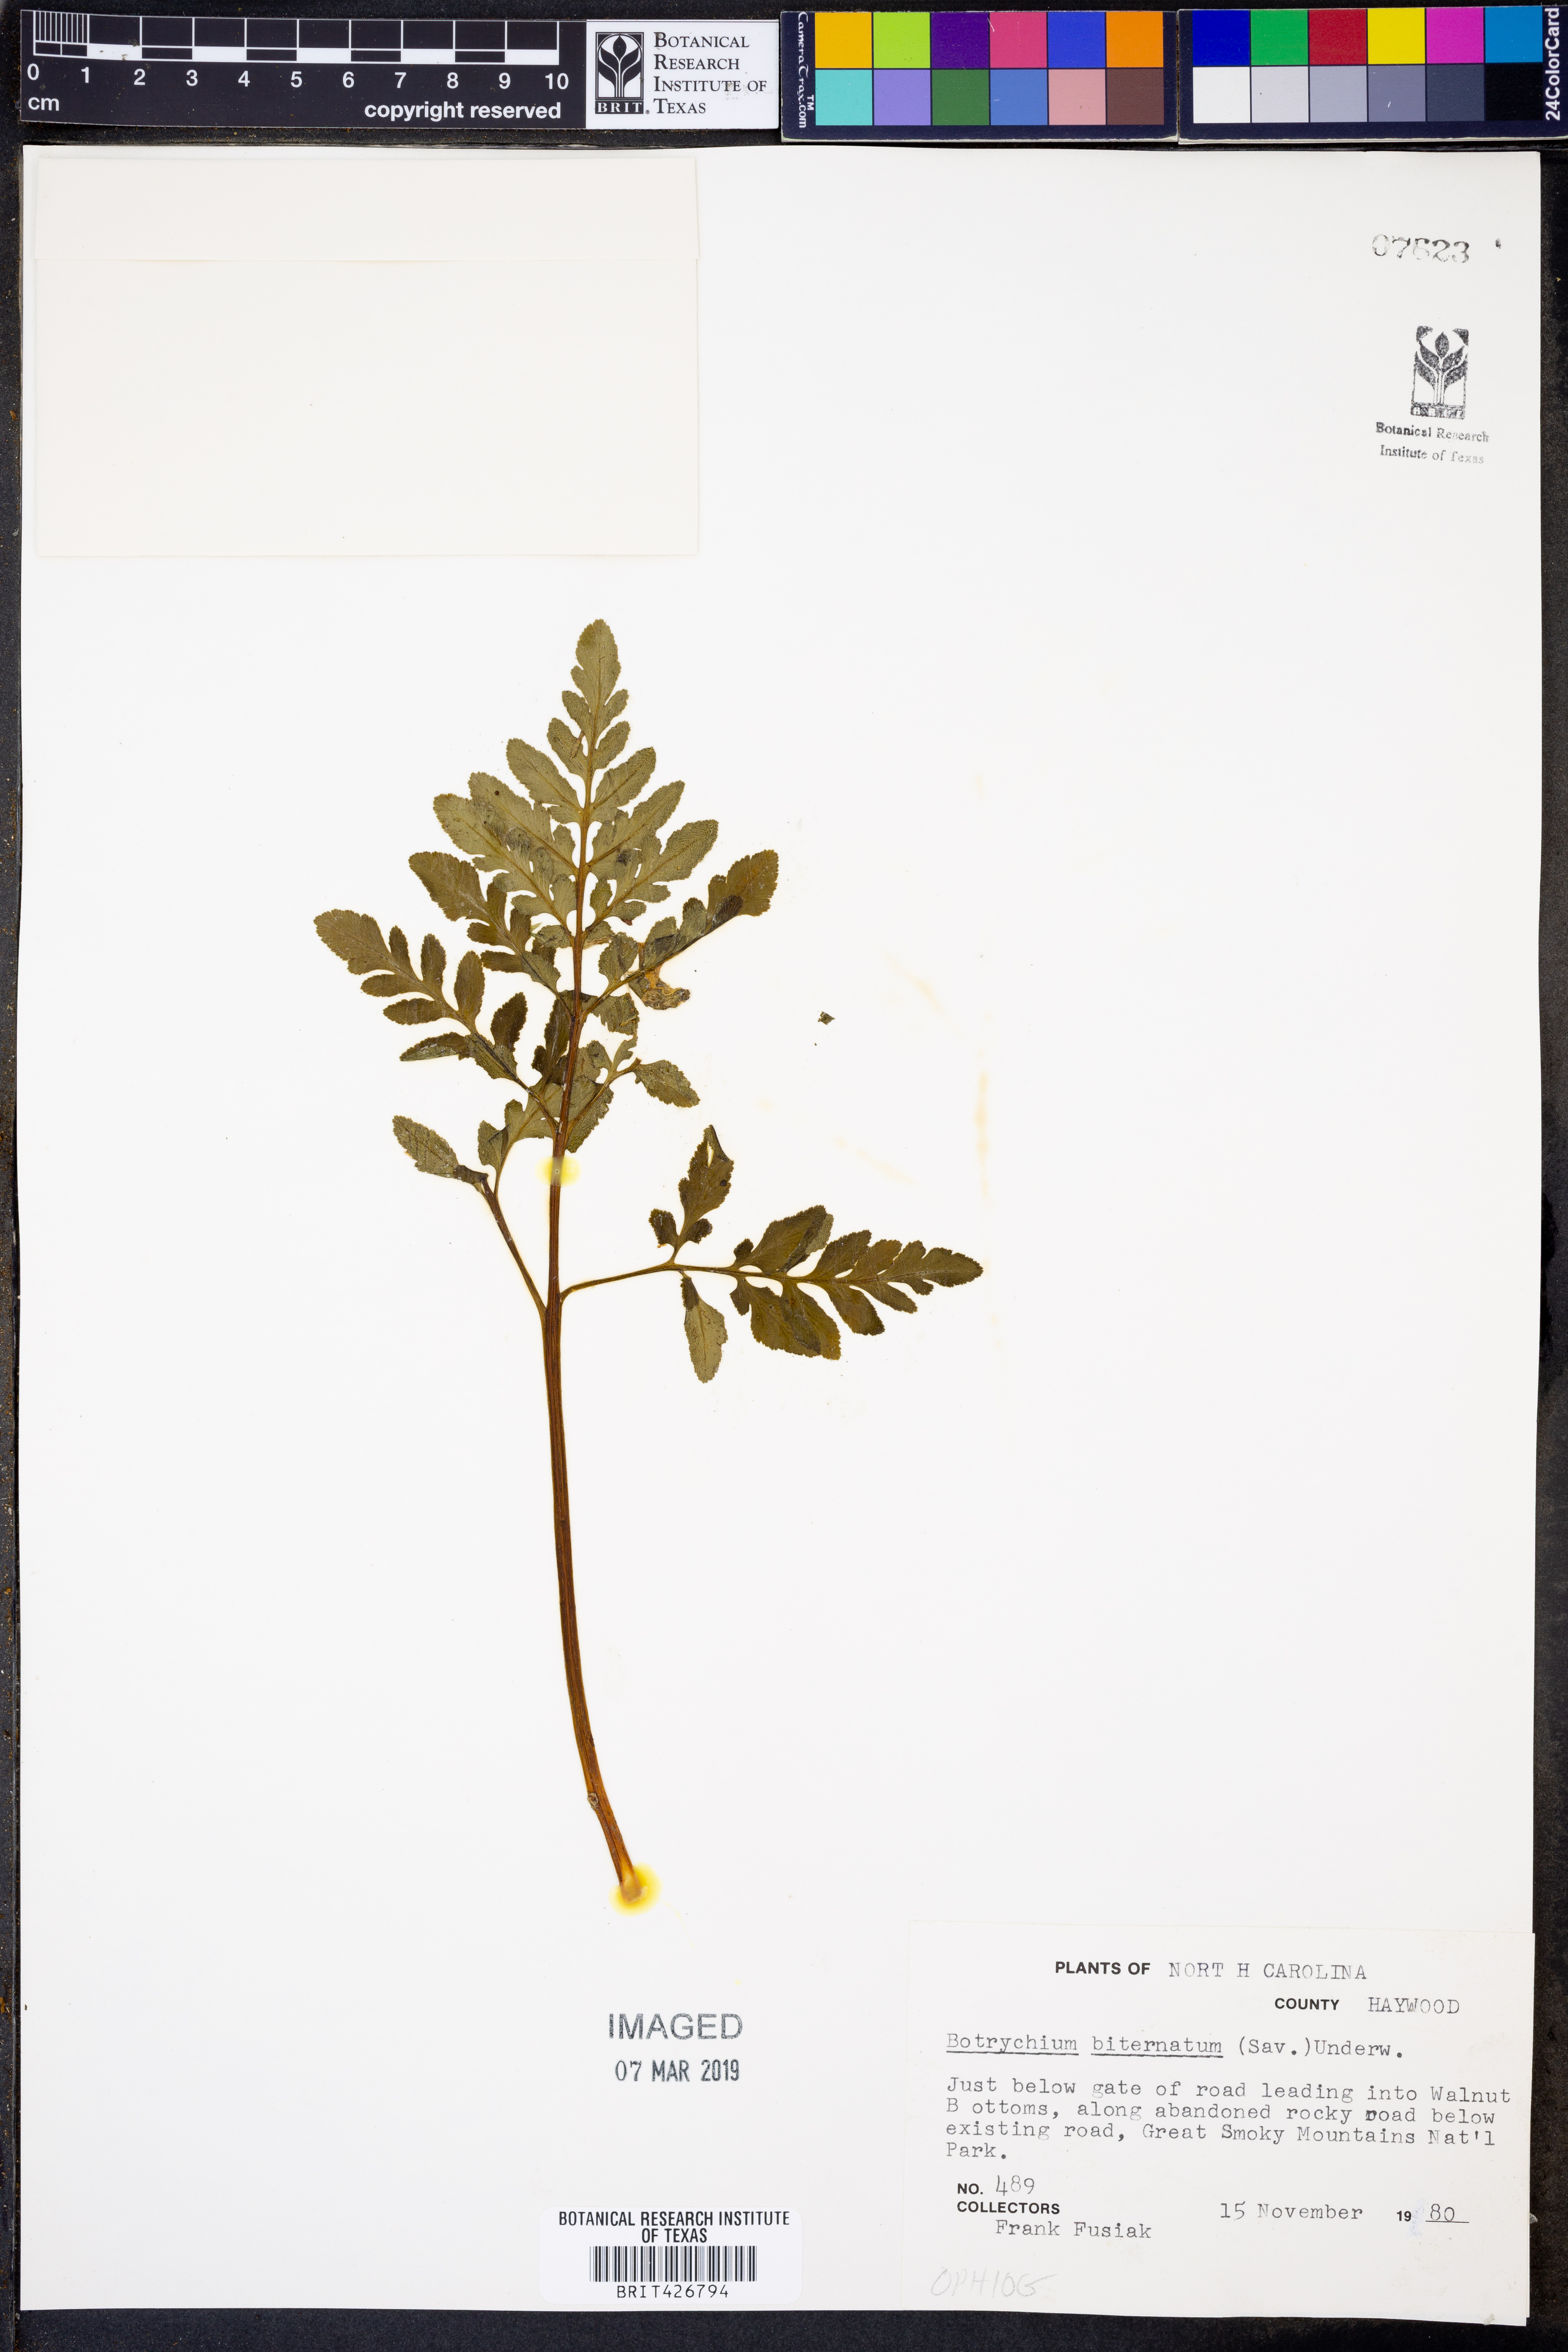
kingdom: Plantae
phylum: Tracheophyta
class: Polypodiopsida
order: Ophioglossales
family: Ophioglossaceae
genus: Sceptridium
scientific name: Sceptridium biternatum
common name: Sparse-lobed grapefern
